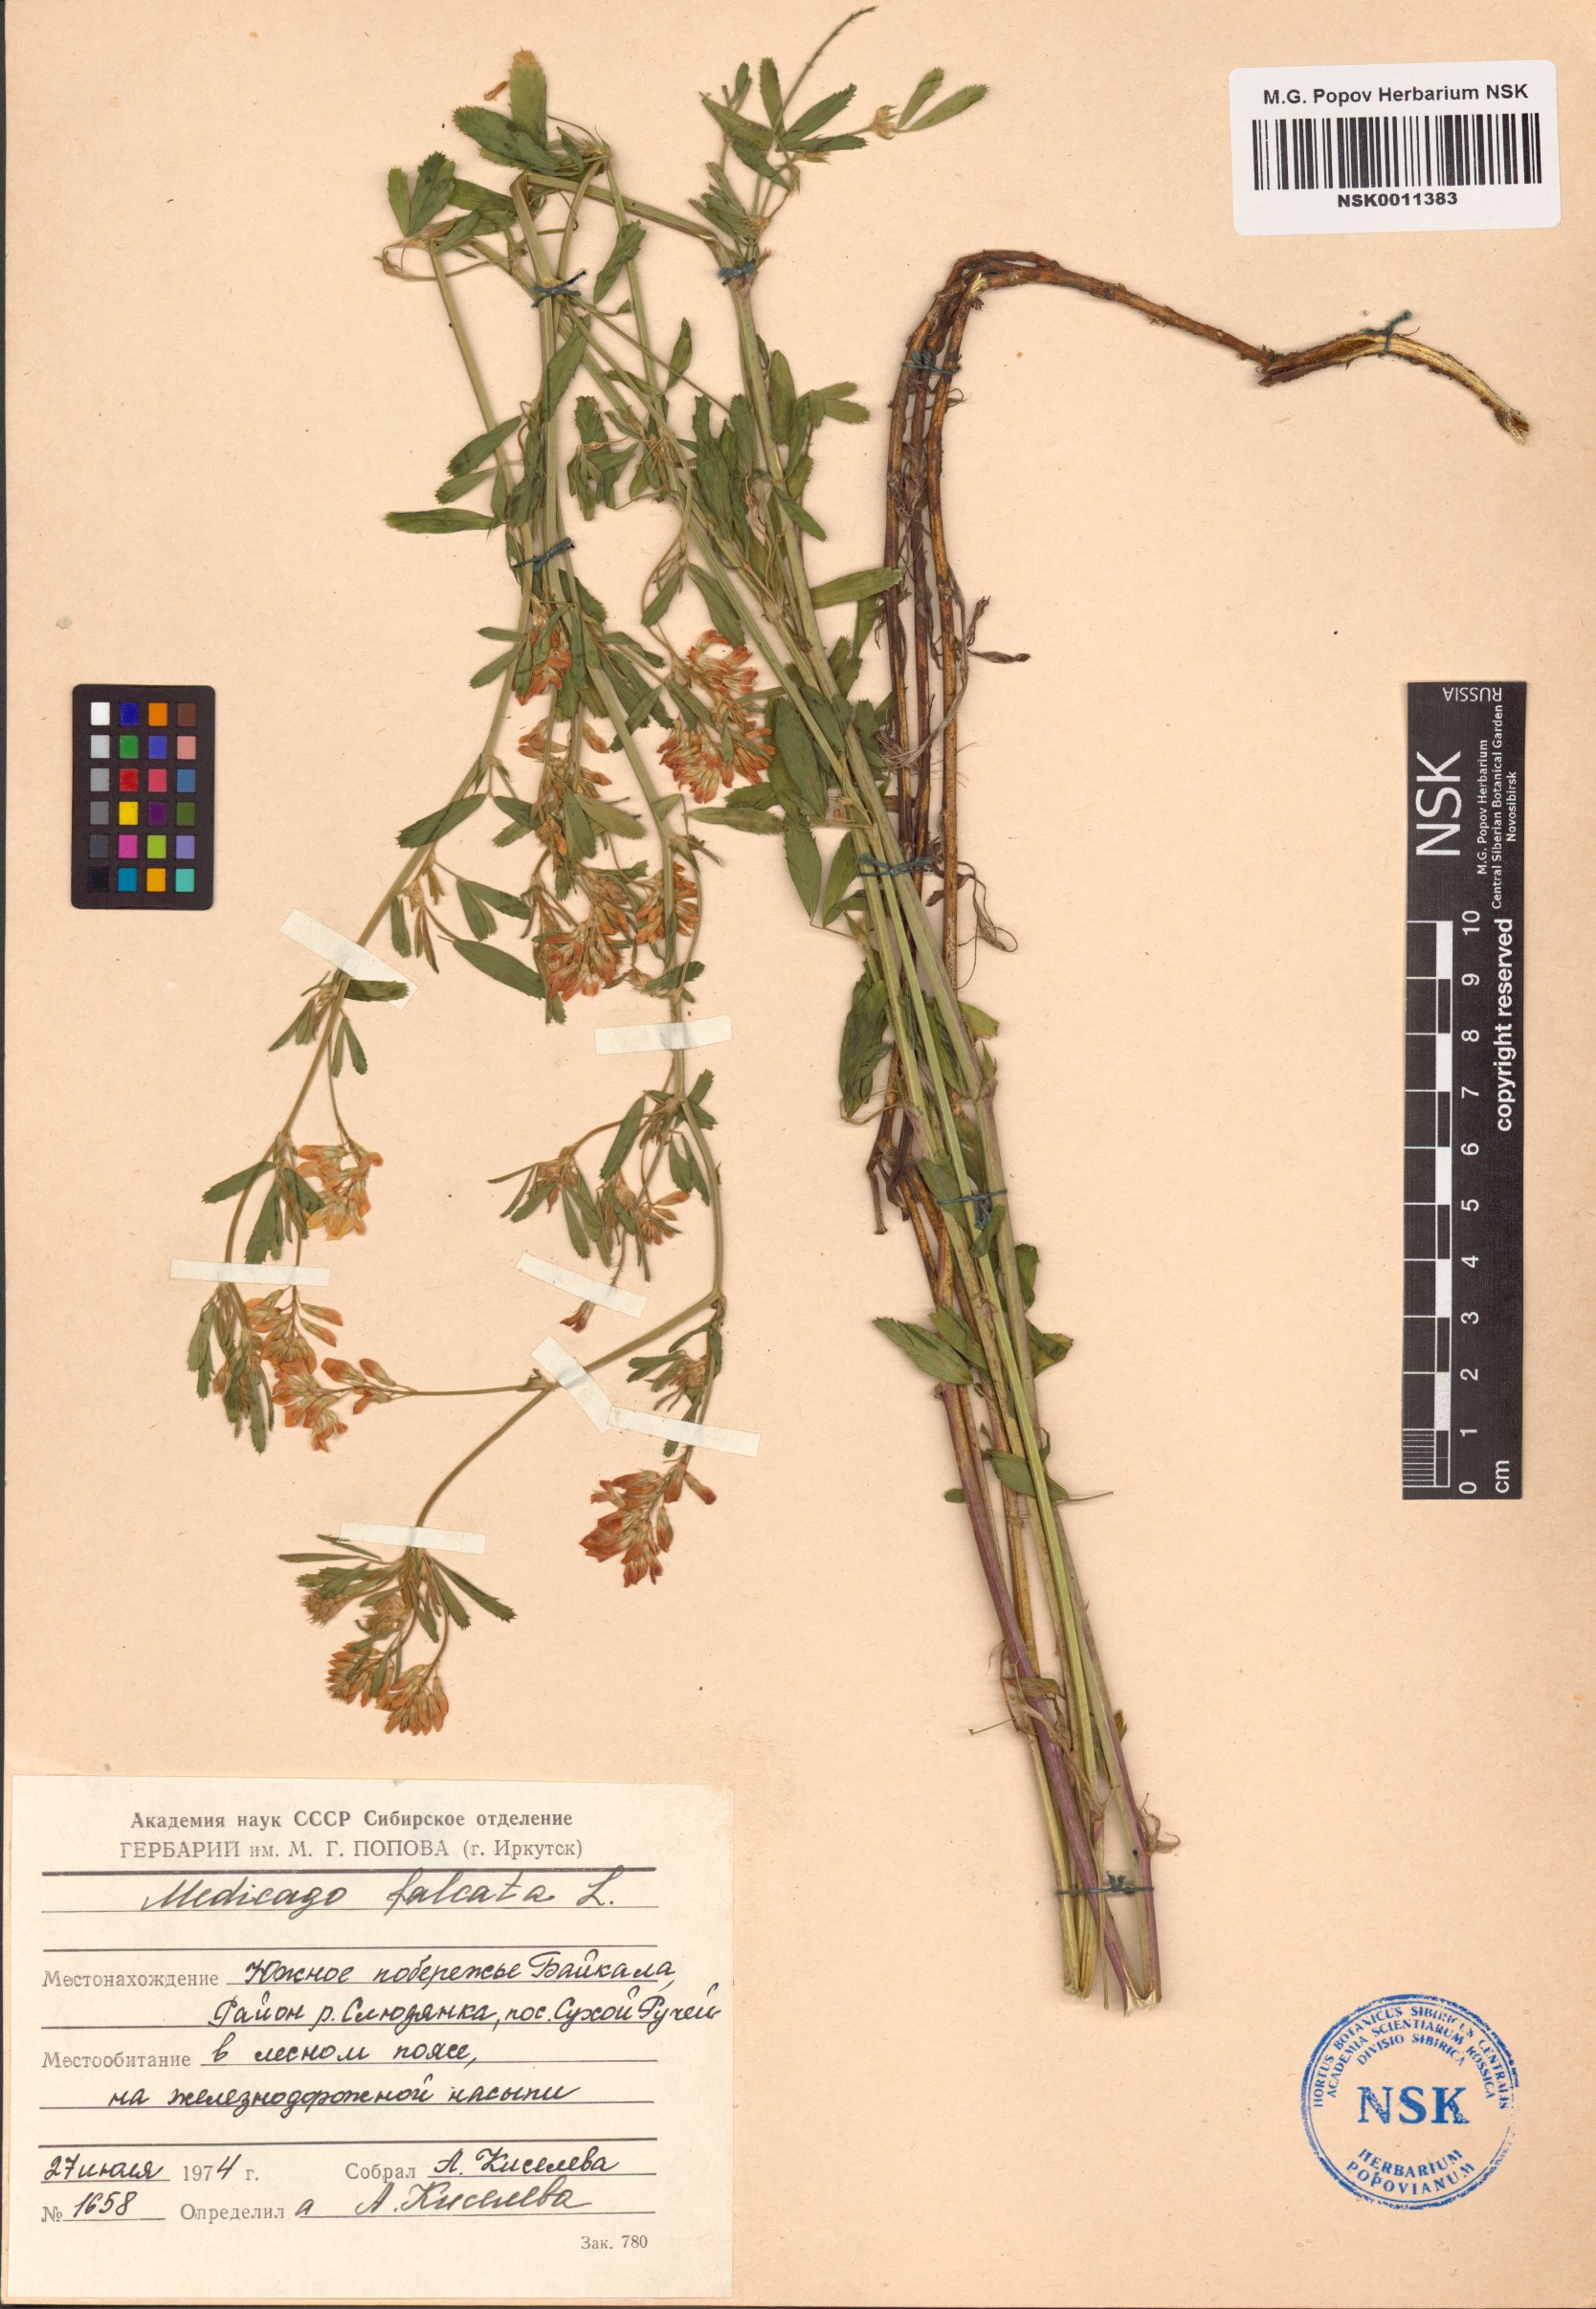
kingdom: Plantae
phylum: Tracheophyta
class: Magnoliopsida
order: Fabales
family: Fabaceae
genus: Medicago
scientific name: Medicago falcata
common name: Sickle medick
